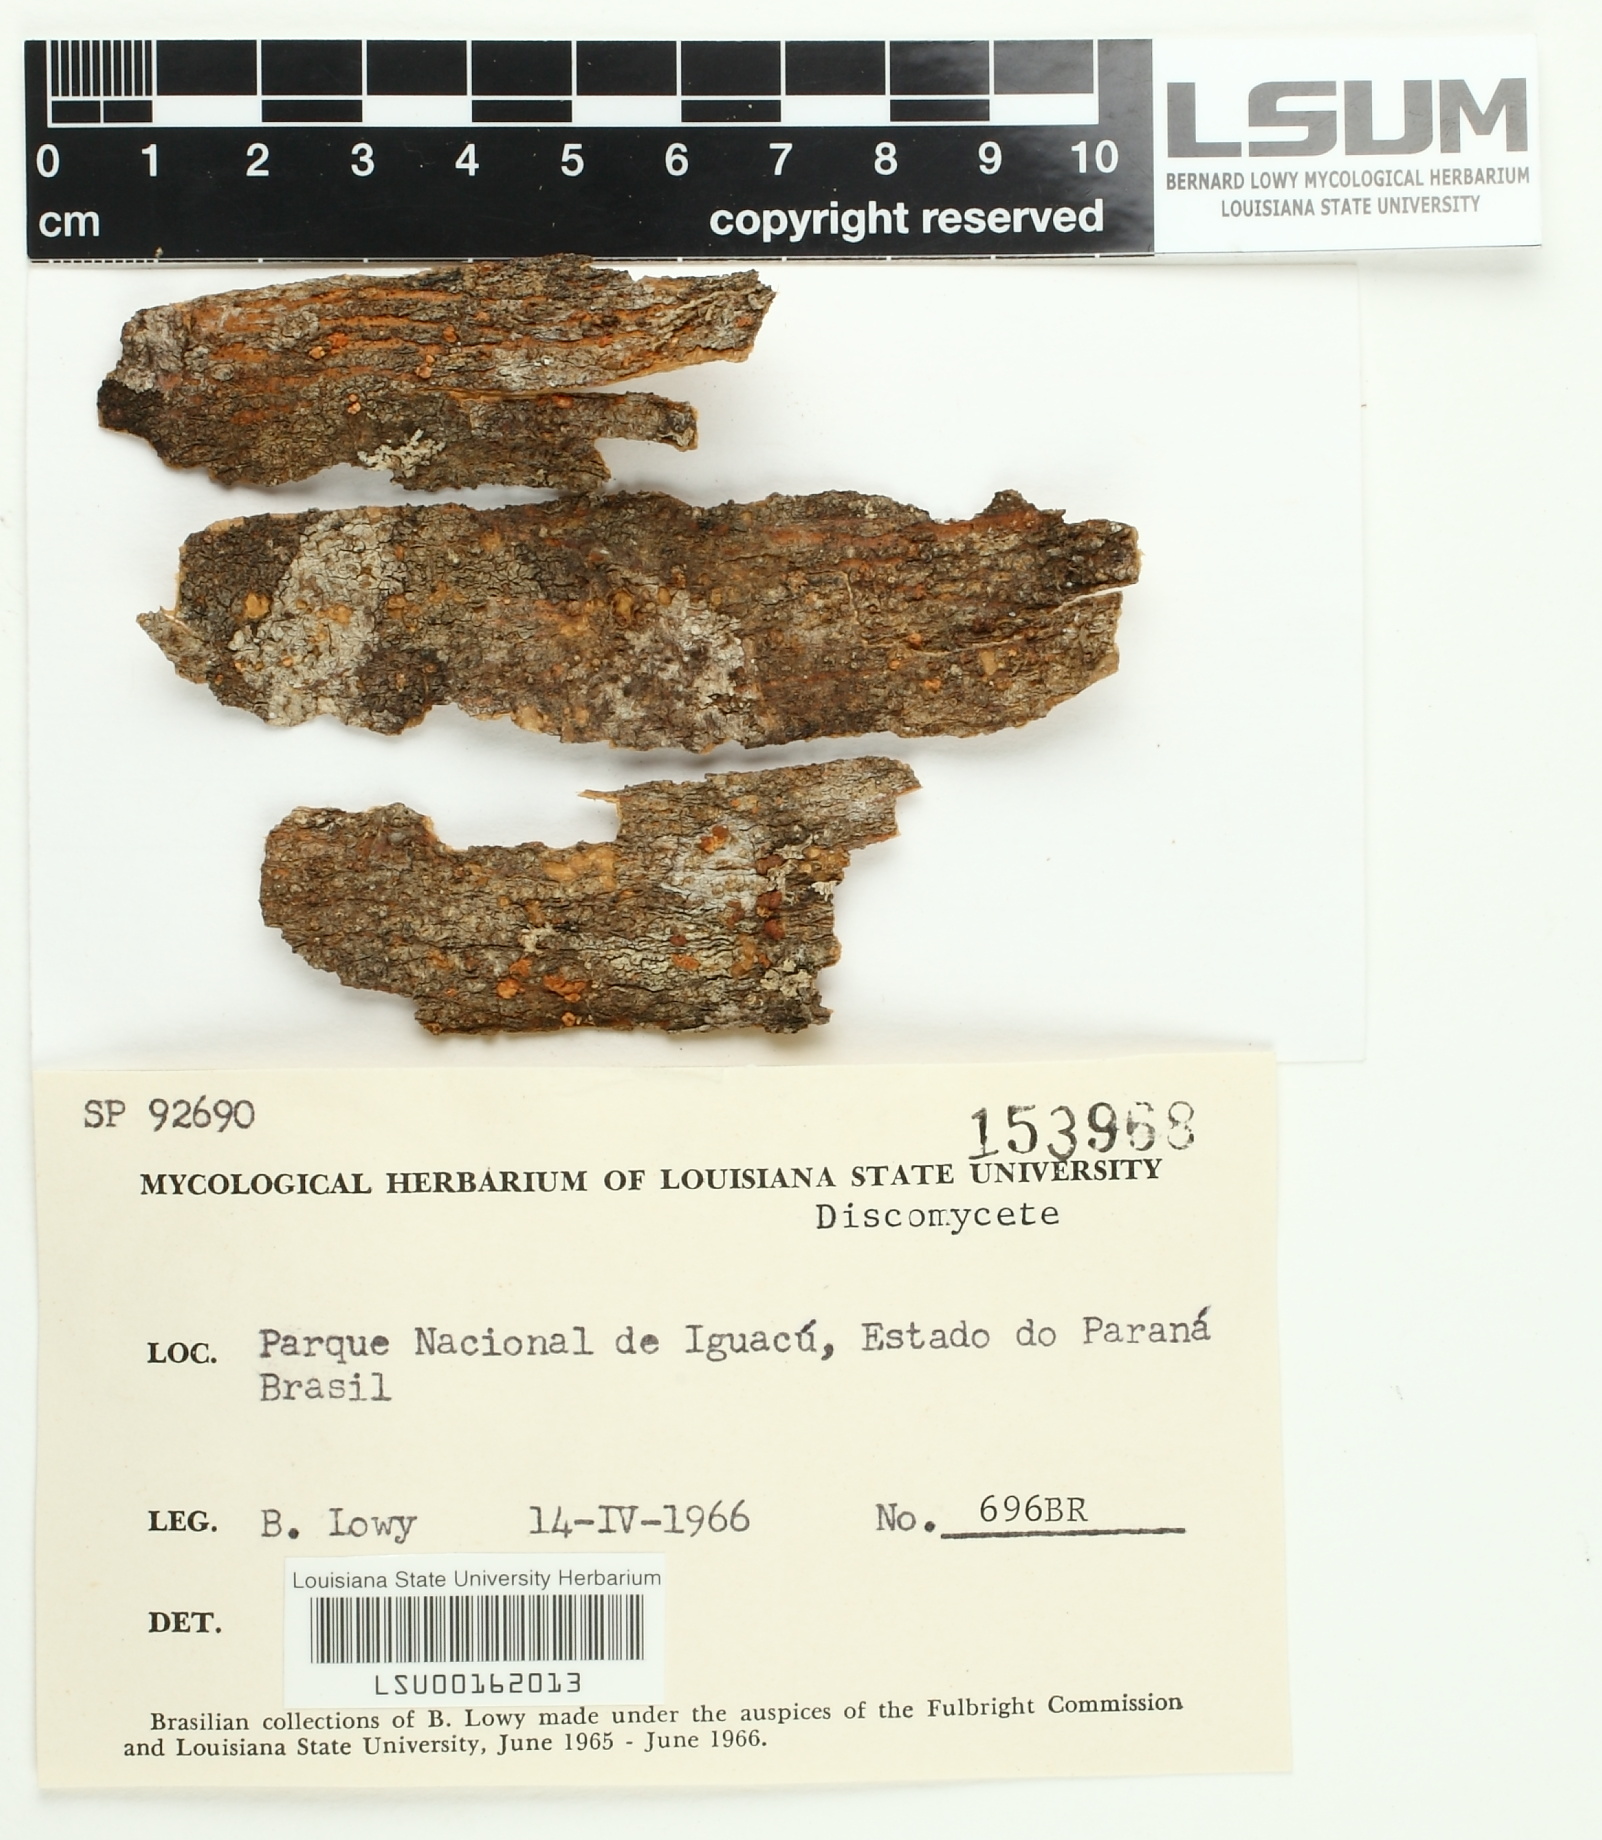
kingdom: Fungi
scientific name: Fungi
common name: Fungi
